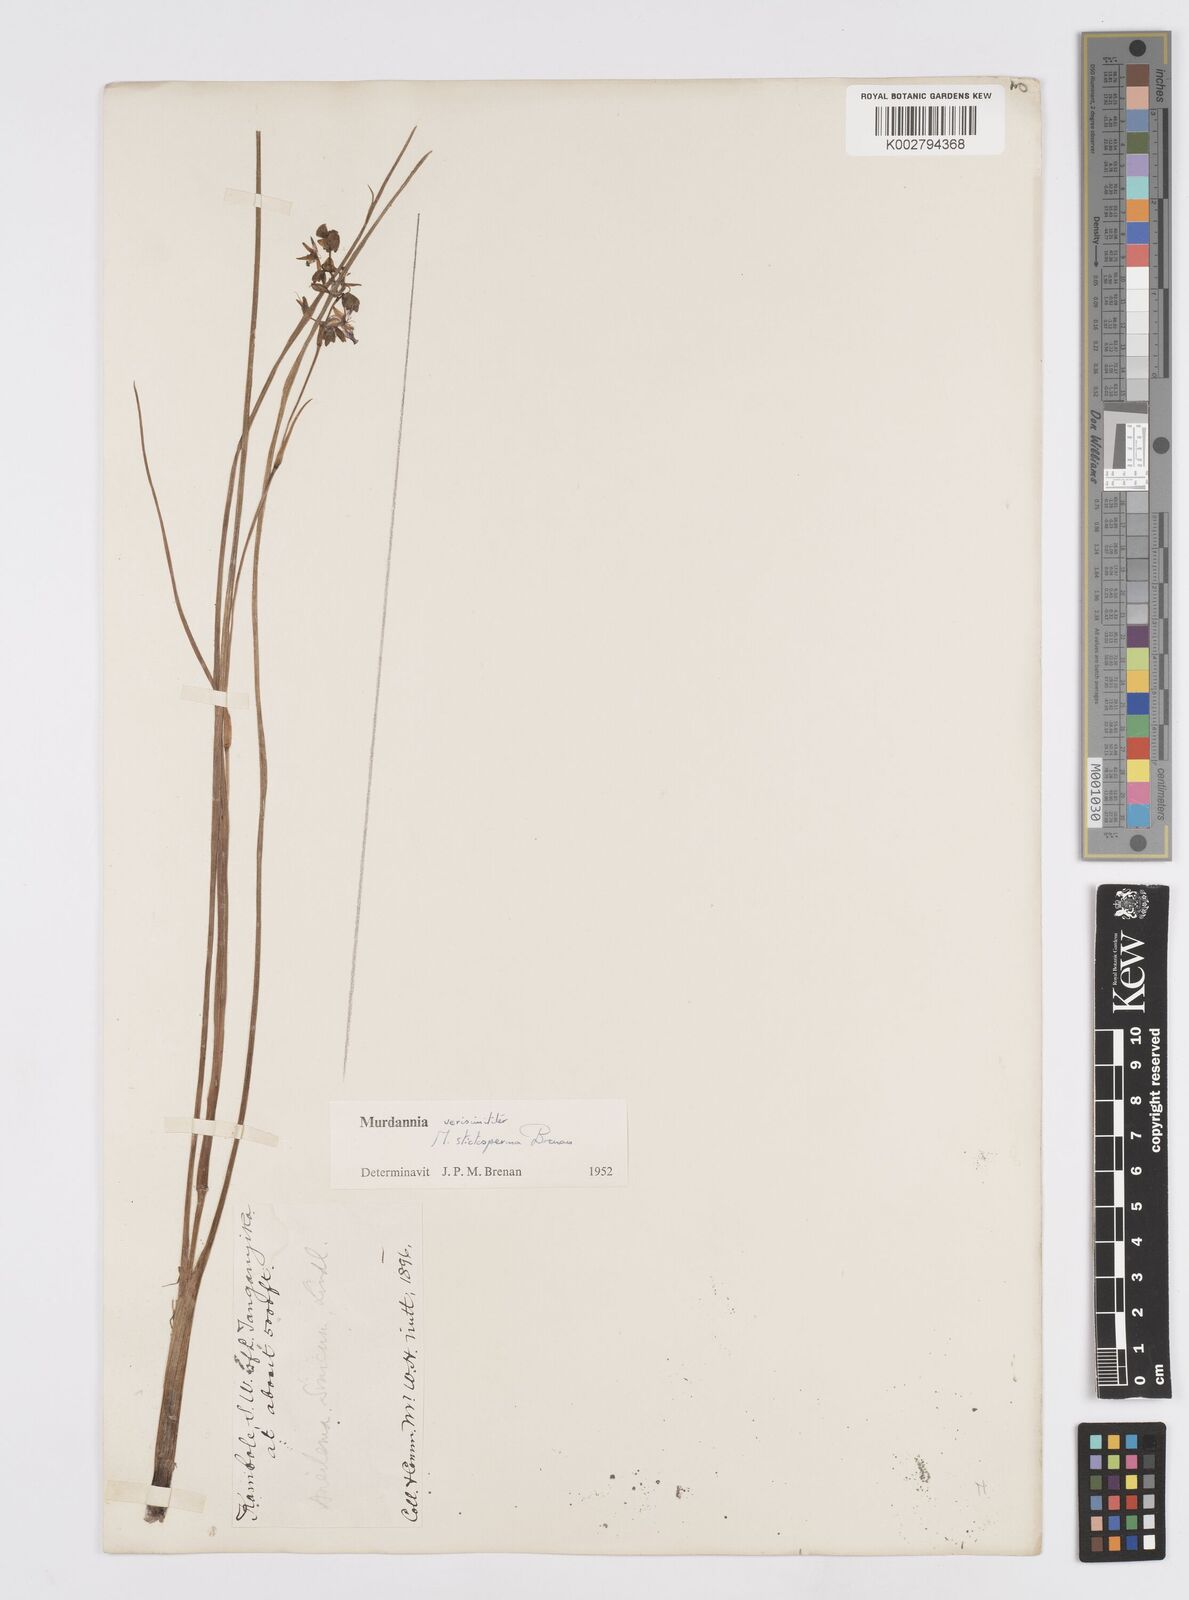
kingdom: Plantae
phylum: Tracheophyta
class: Liliopsida
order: Commelinales
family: Commelinaceae
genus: Murdannia
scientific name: Murdannia simplex
